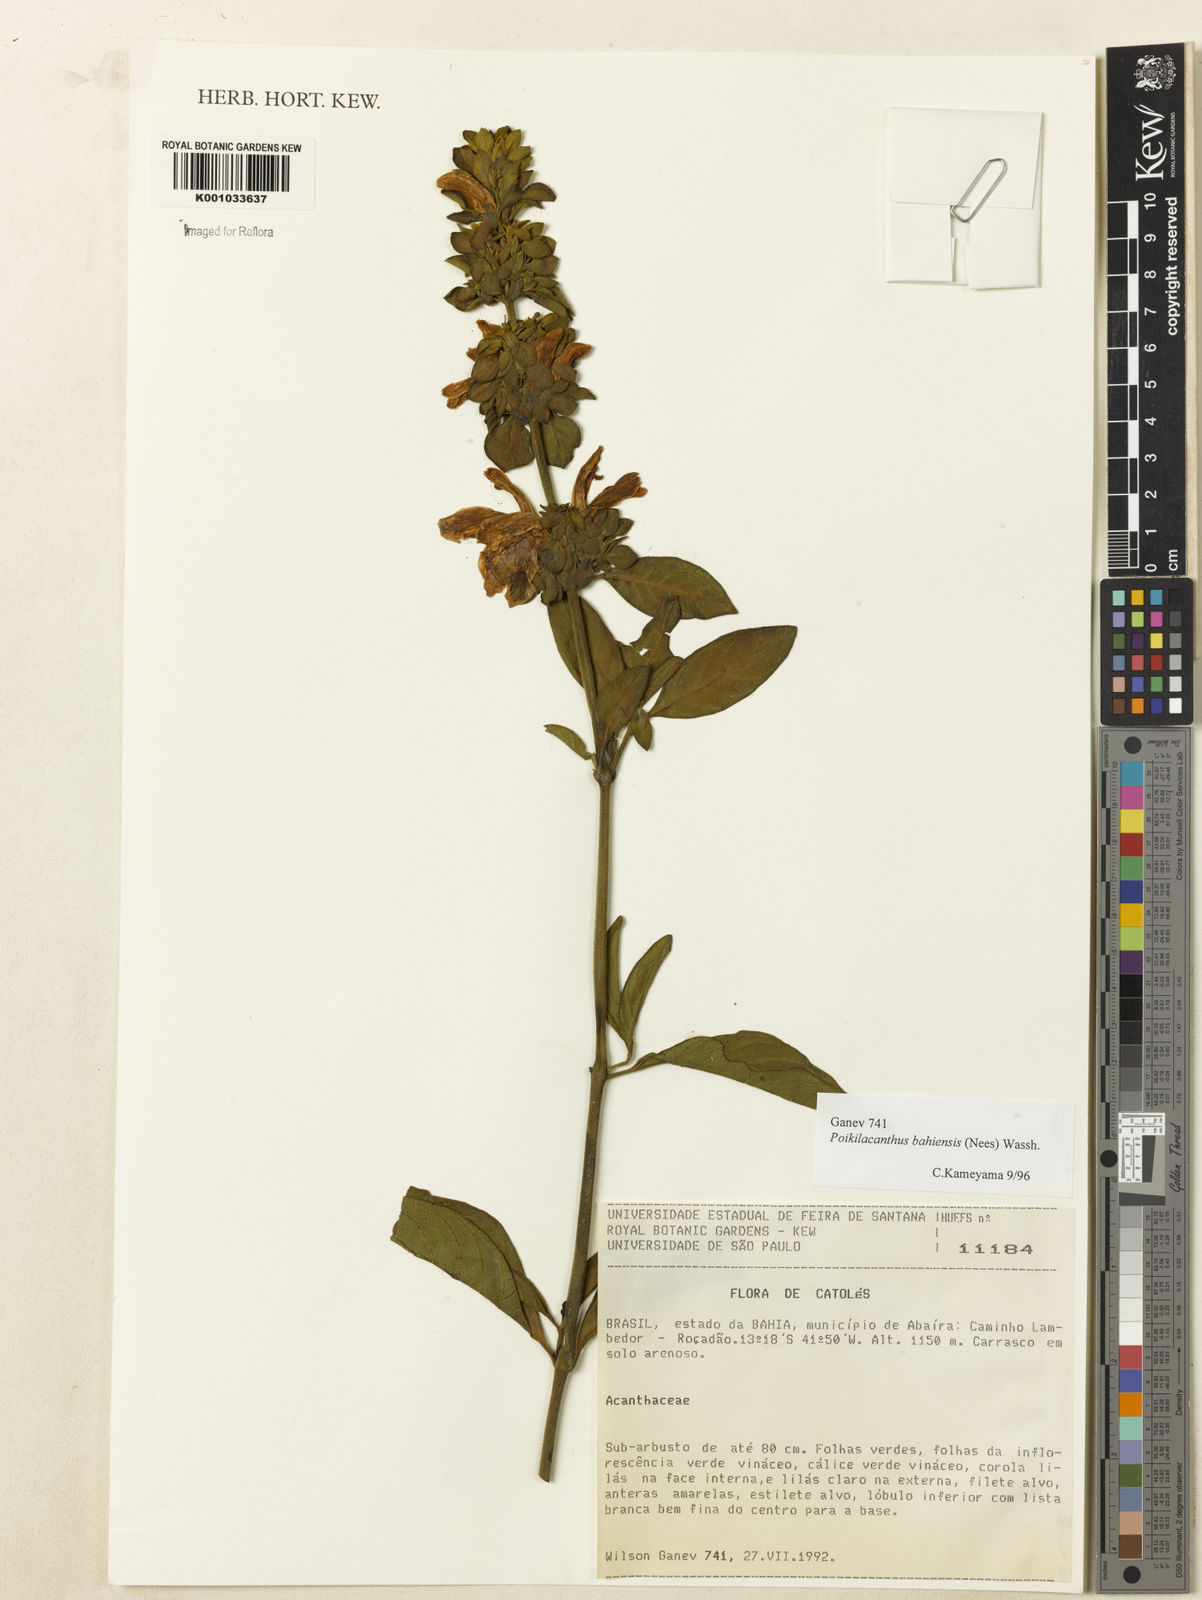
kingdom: Plantae
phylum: Tracheophyta
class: Magnoliopsida
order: Lamiales
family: Acanthaceae
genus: Poikilacanthus
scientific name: Poikilacanthus bahiensis
